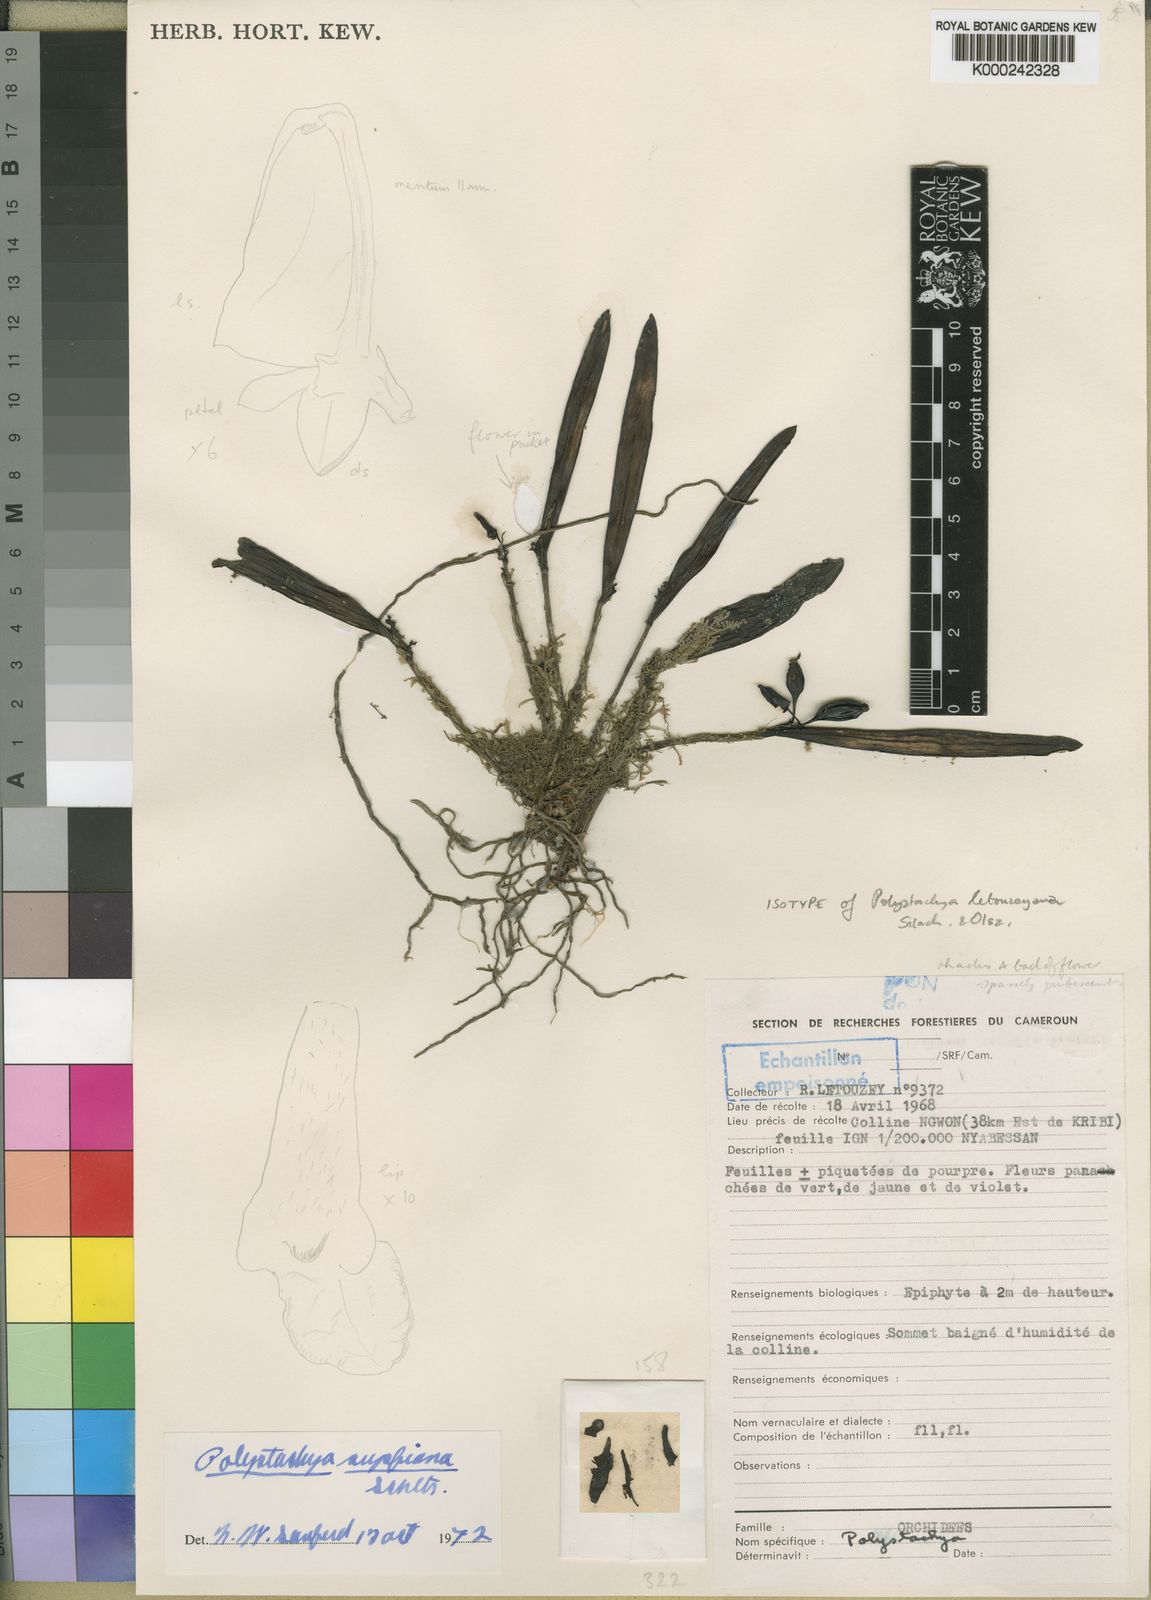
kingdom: Plantae
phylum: Tracheophyta
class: Liliopsida
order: Asparagales
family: Orchidaceae
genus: Polystachya
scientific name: Polystachya supfiana
